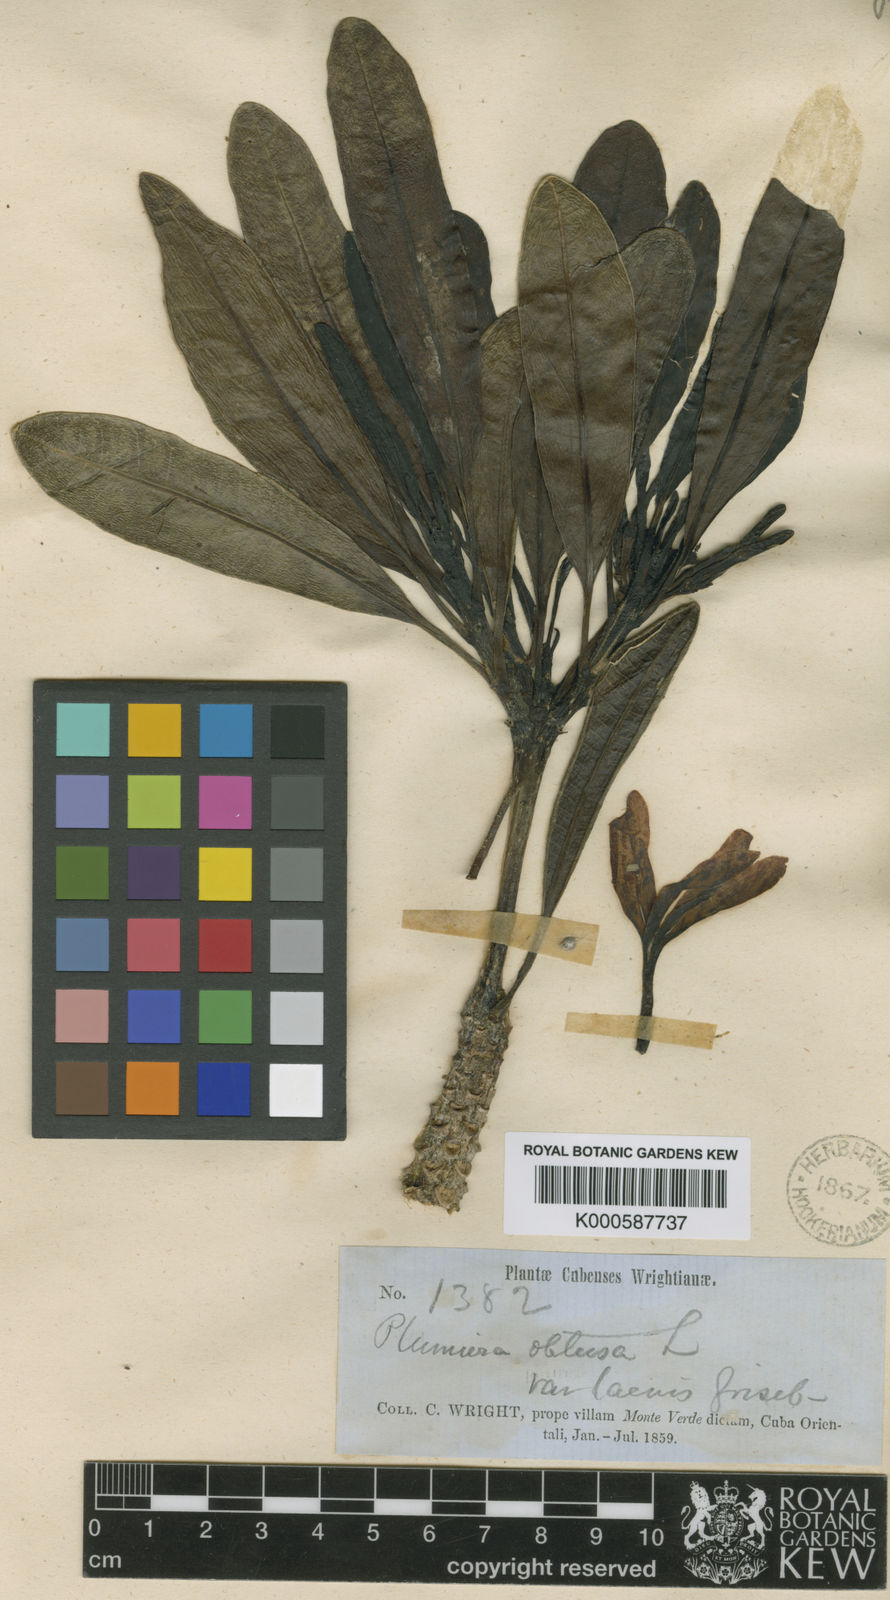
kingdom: Plantae
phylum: Tracheophyta
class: Magnoliopsida
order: Gentianales
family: Apocynaceae
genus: Plumeria
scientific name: Plumeria obtusa
